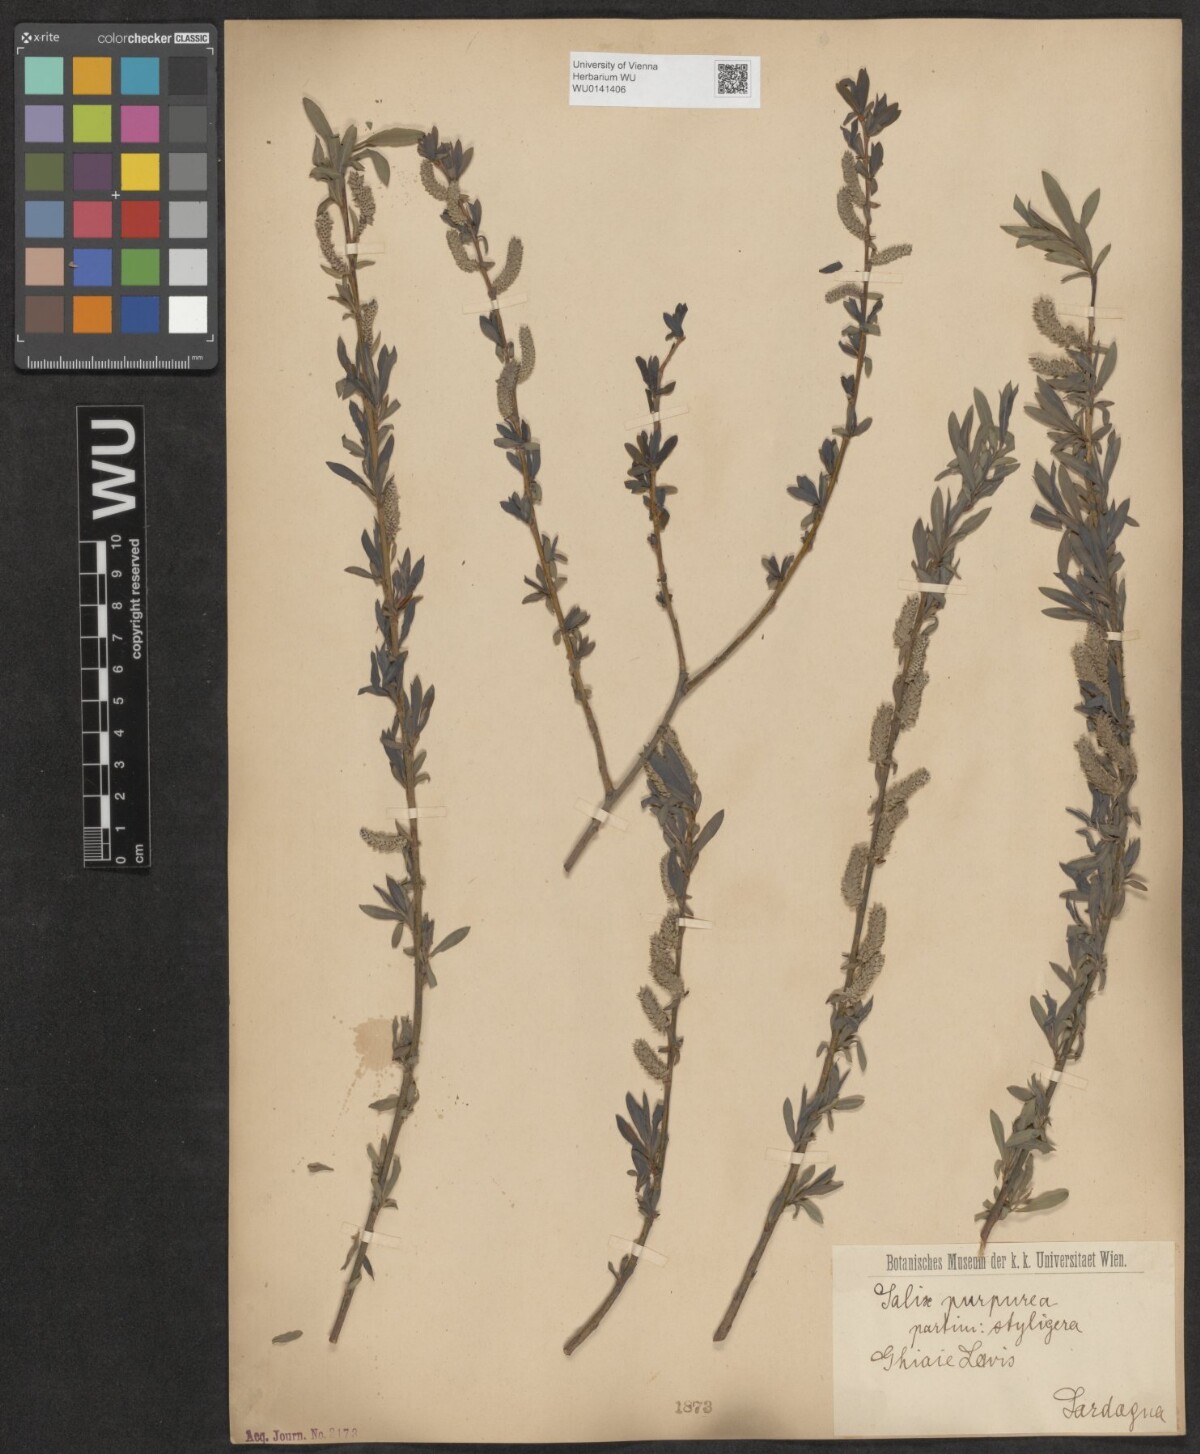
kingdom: Plantae
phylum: Tracheophyta
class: Magnoliopsida
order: Malpighiales
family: Salicaceae
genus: Salix
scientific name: Salix purpurea
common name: Purple willow
